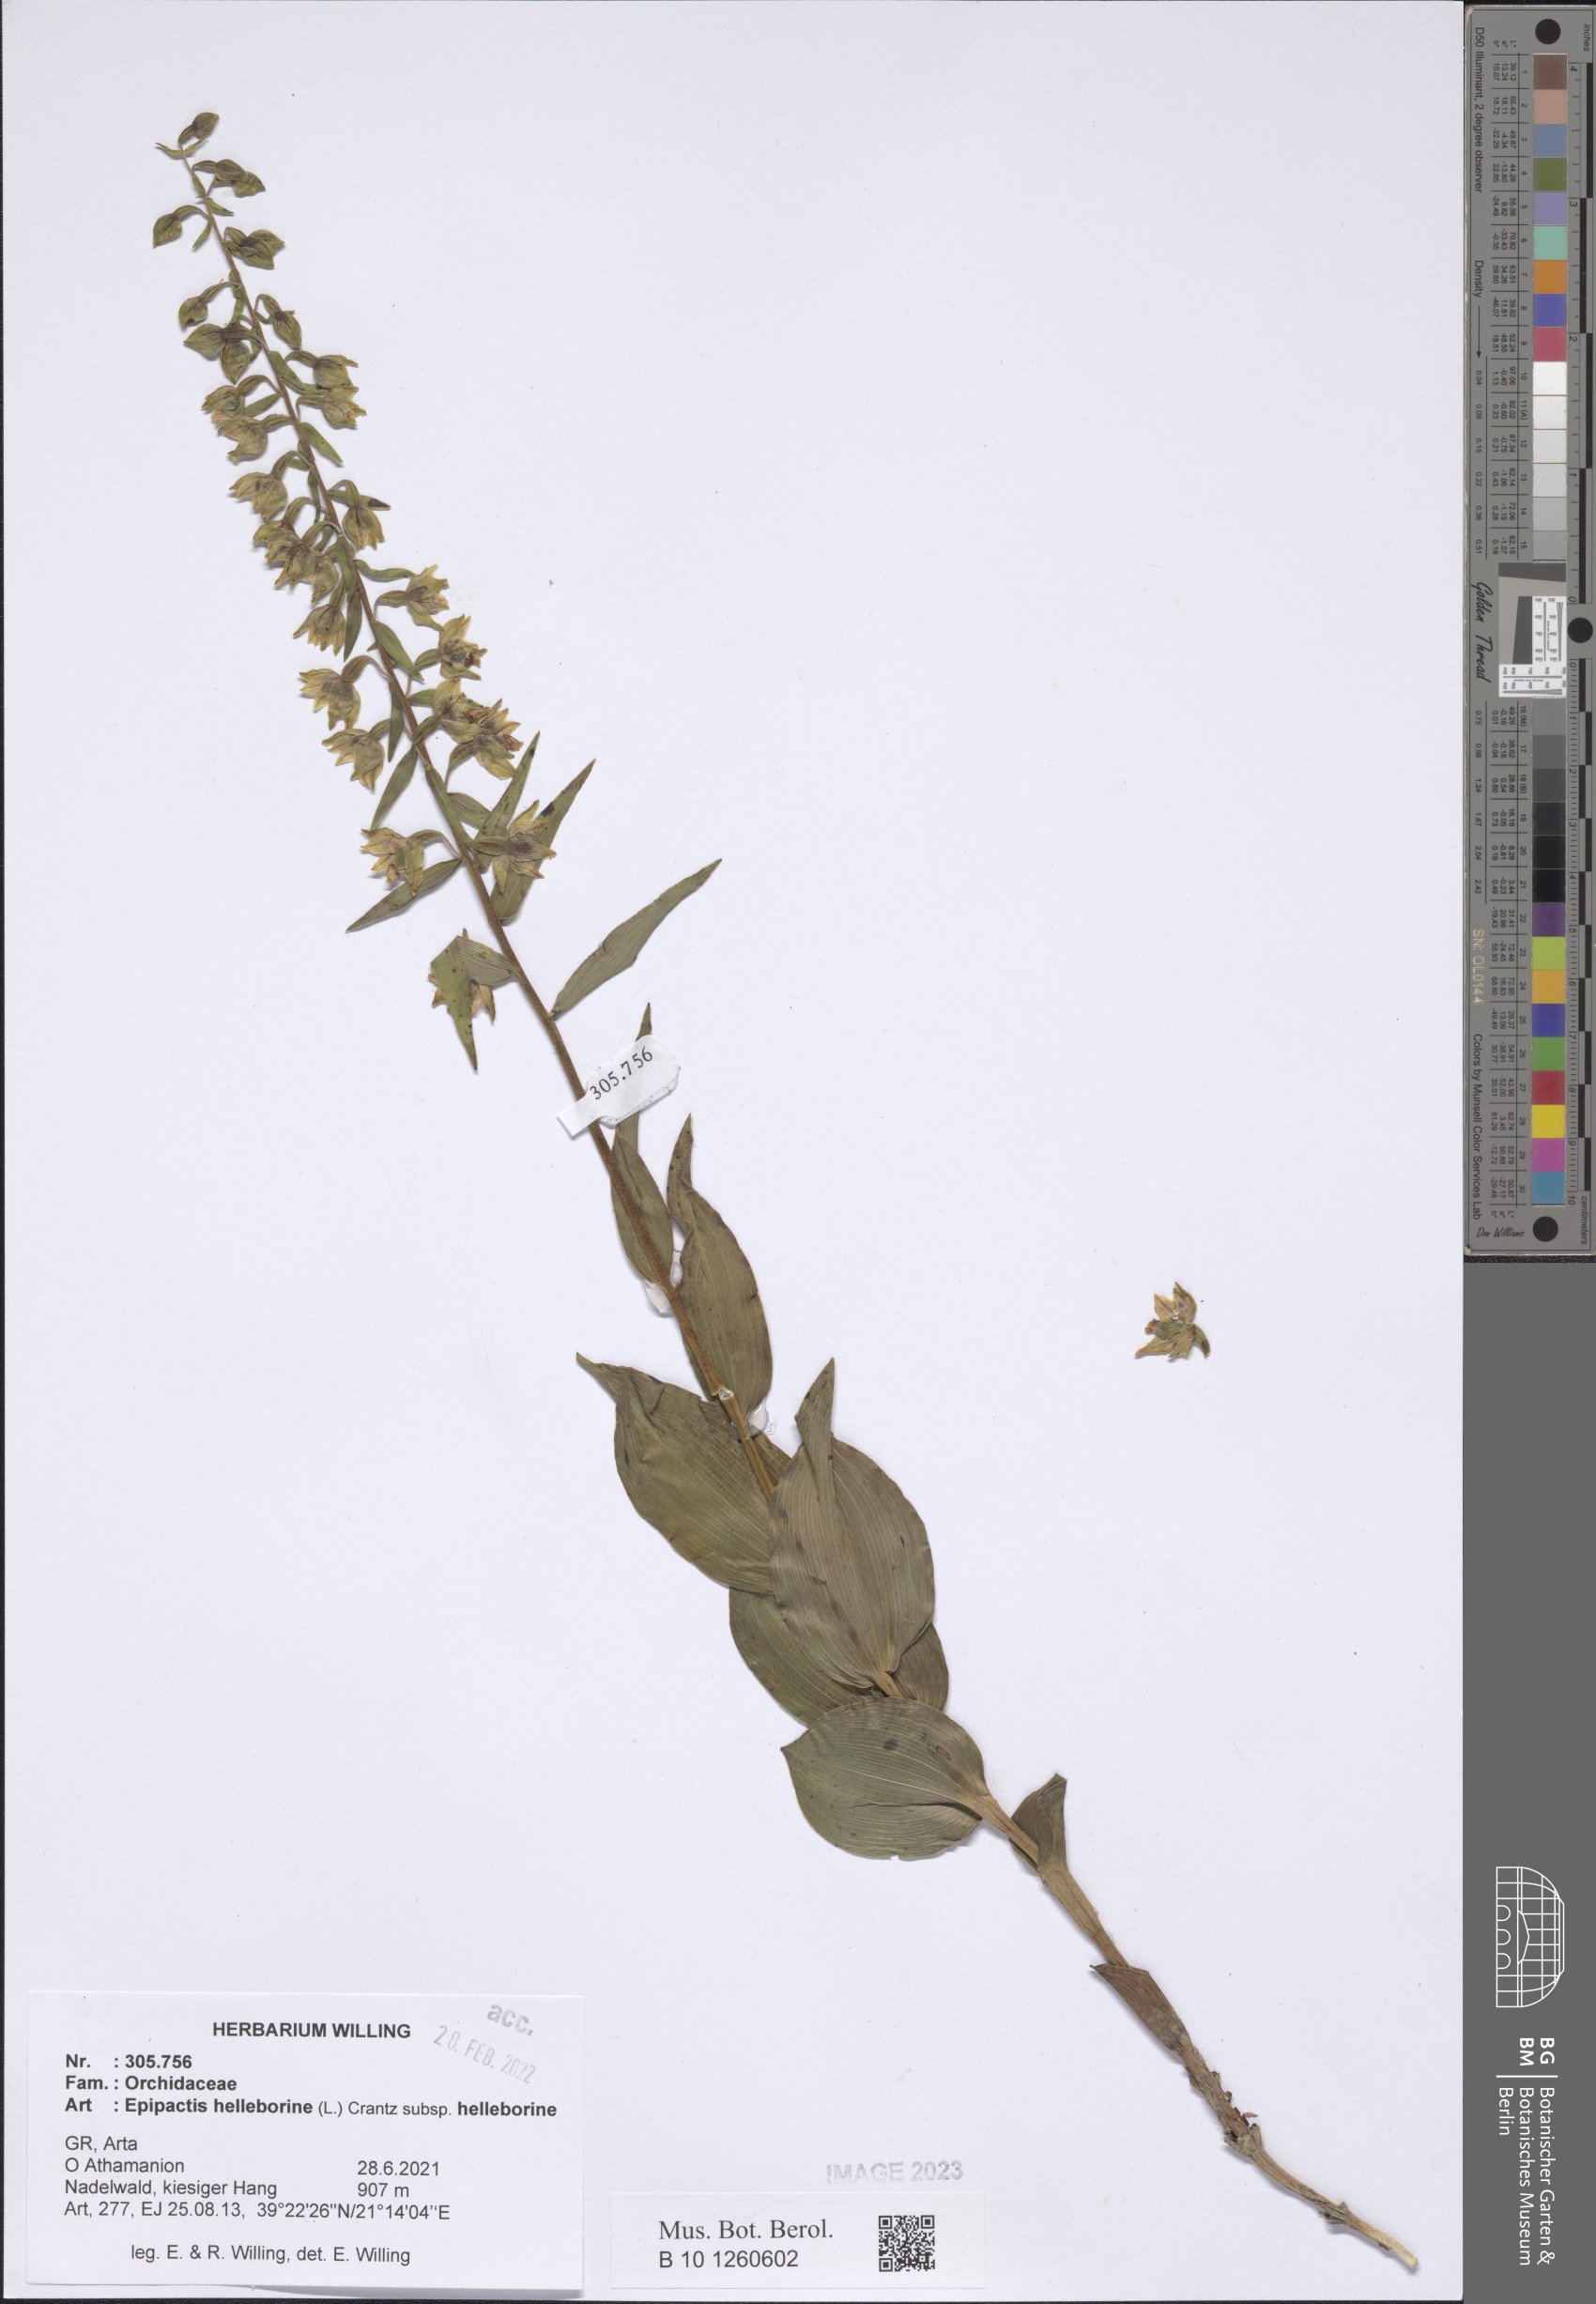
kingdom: Plantae
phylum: Tracheophyta
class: Liliopsida
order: Asparagales
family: Orchidaceae
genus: Epipactis
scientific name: Epipactis helleborine
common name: Broad-leaved helleborine
